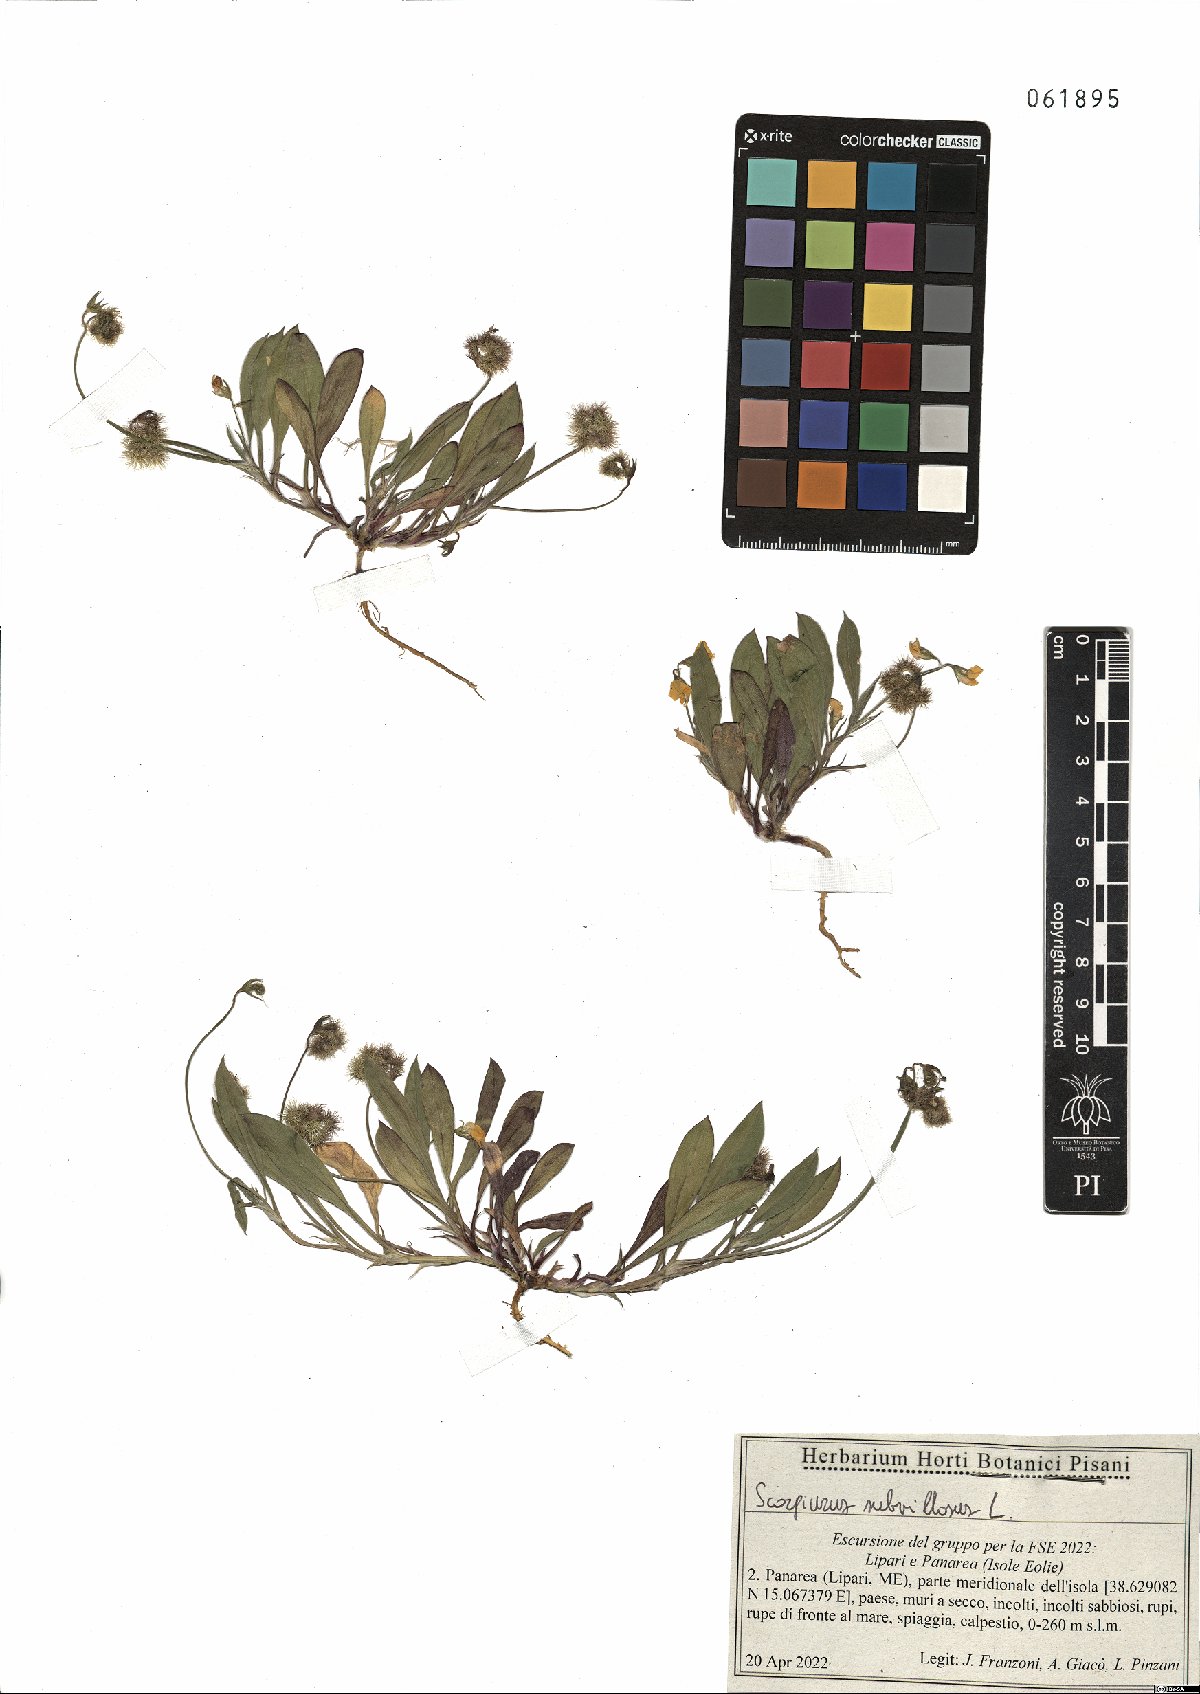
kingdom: Plantae
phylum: Tracheophyta
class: Magnoliopsida
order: Fabales
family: Fabaceae
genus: Scorpiurus
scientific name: Scorpiurus muricatus
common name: Caterpillar-plant
